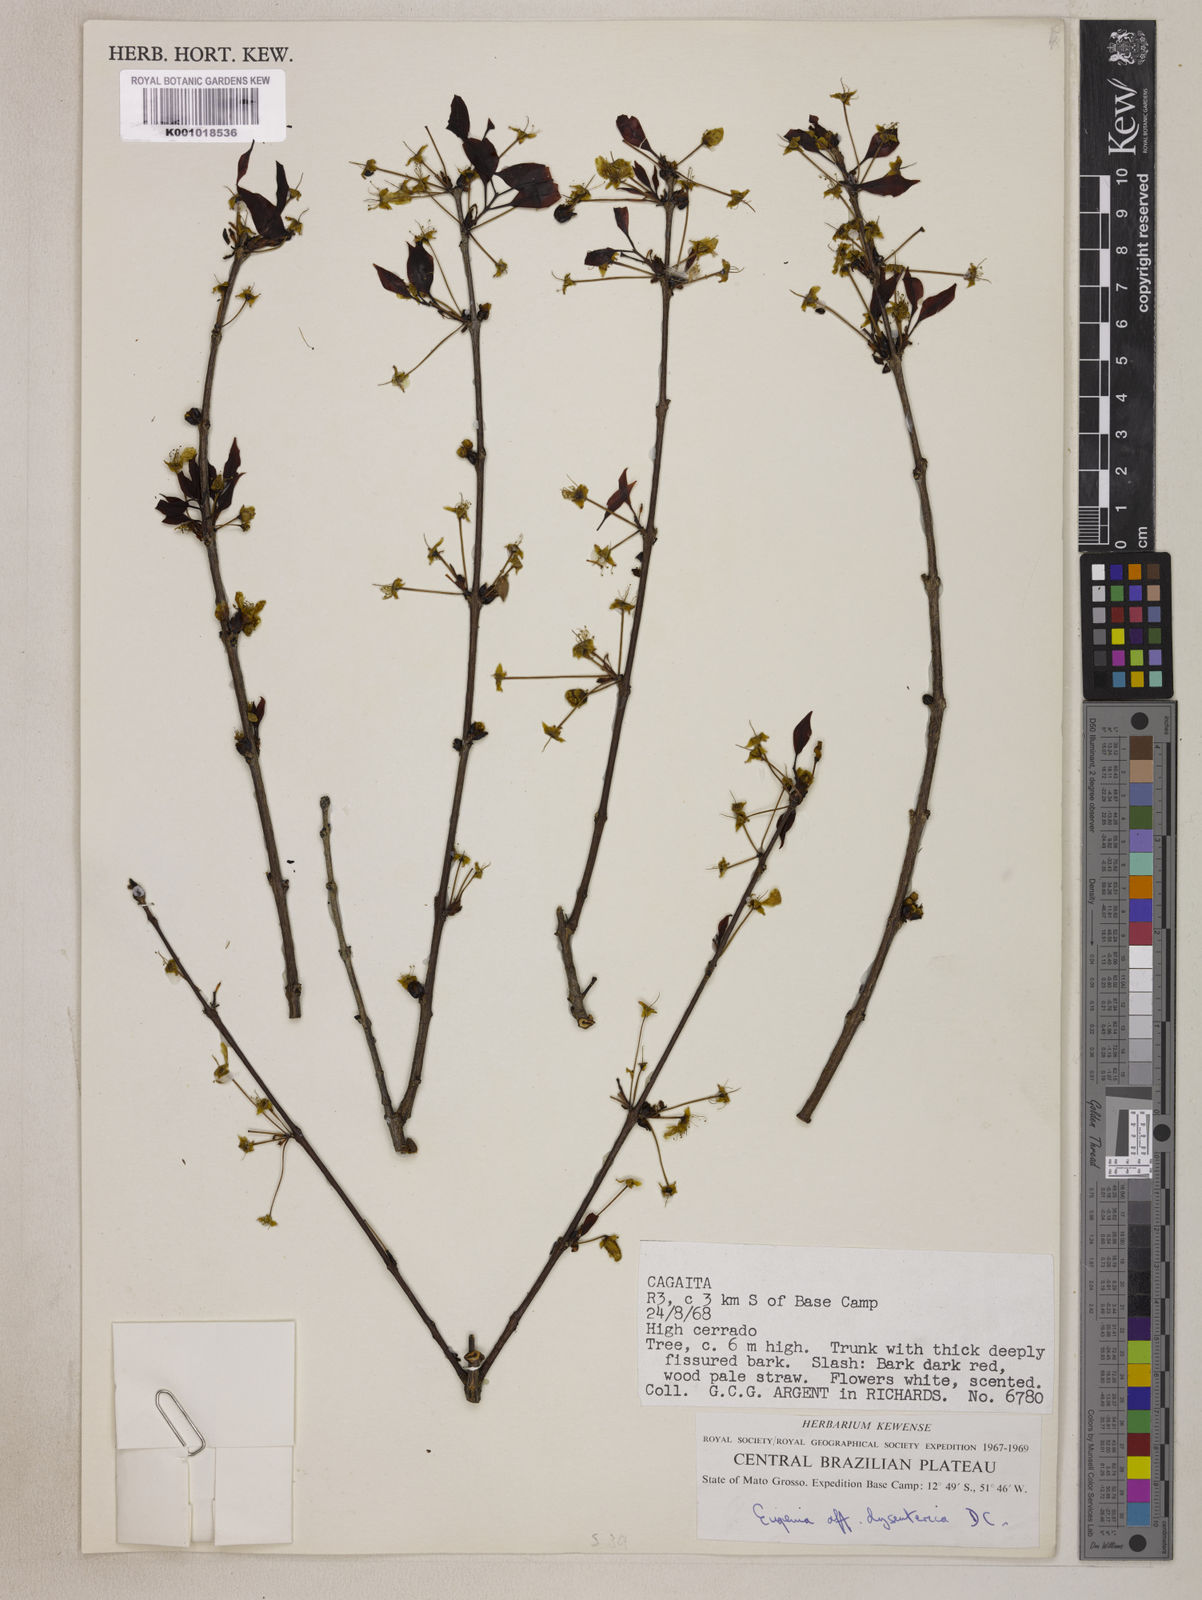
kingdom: Plantae
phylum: Tracheophyta
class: Magnoliopsida
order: Myrtales
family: Myrtaceae
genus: Eugenia
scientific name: Eugenia dysenterica
